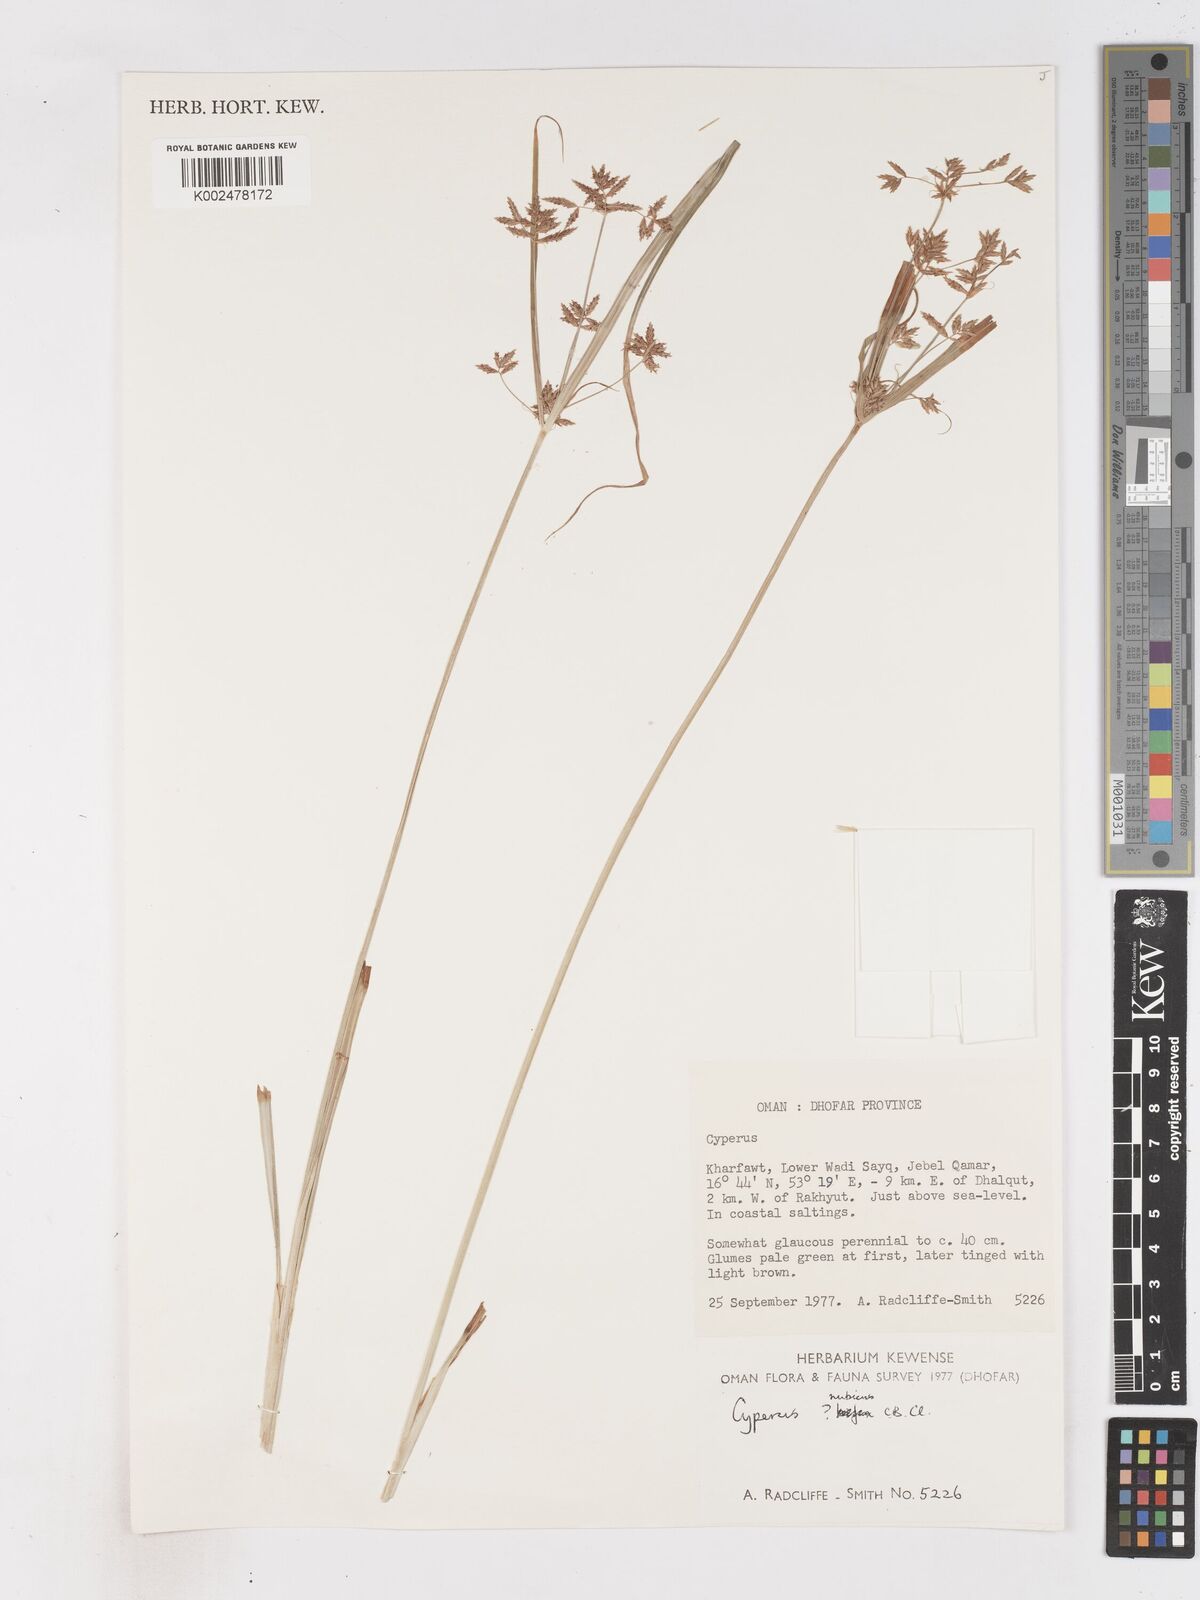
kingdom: Plantae
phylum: Tracheophyta
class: Liliopsida
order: Poales
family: Cyperaceae
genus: Cyperus
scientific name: Cyperus nubicus
